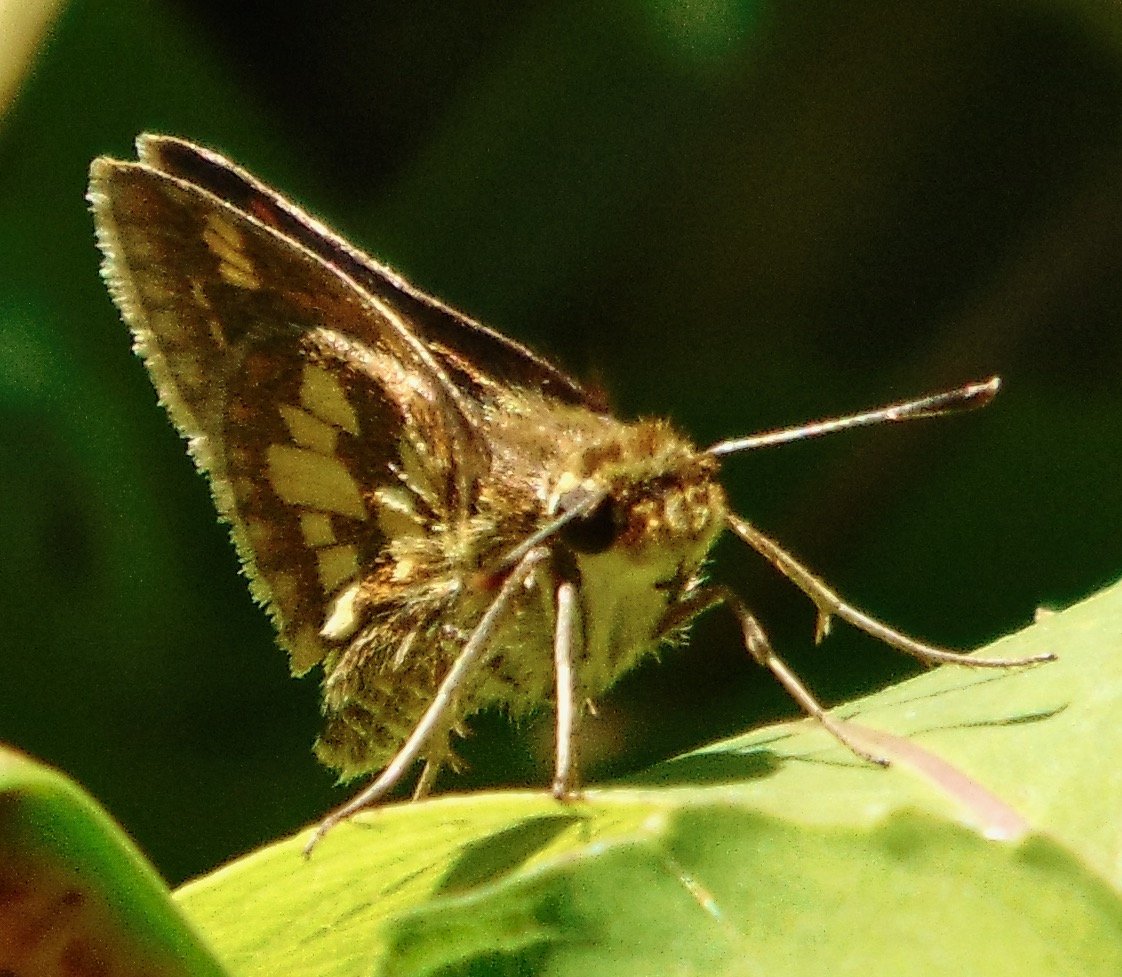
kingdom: Animalia
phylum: Arthropoda
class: Insecta
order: Lepidoptera
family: Hesperiidae
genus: Polites
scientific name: Polites coras
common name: Peck's Skipper
